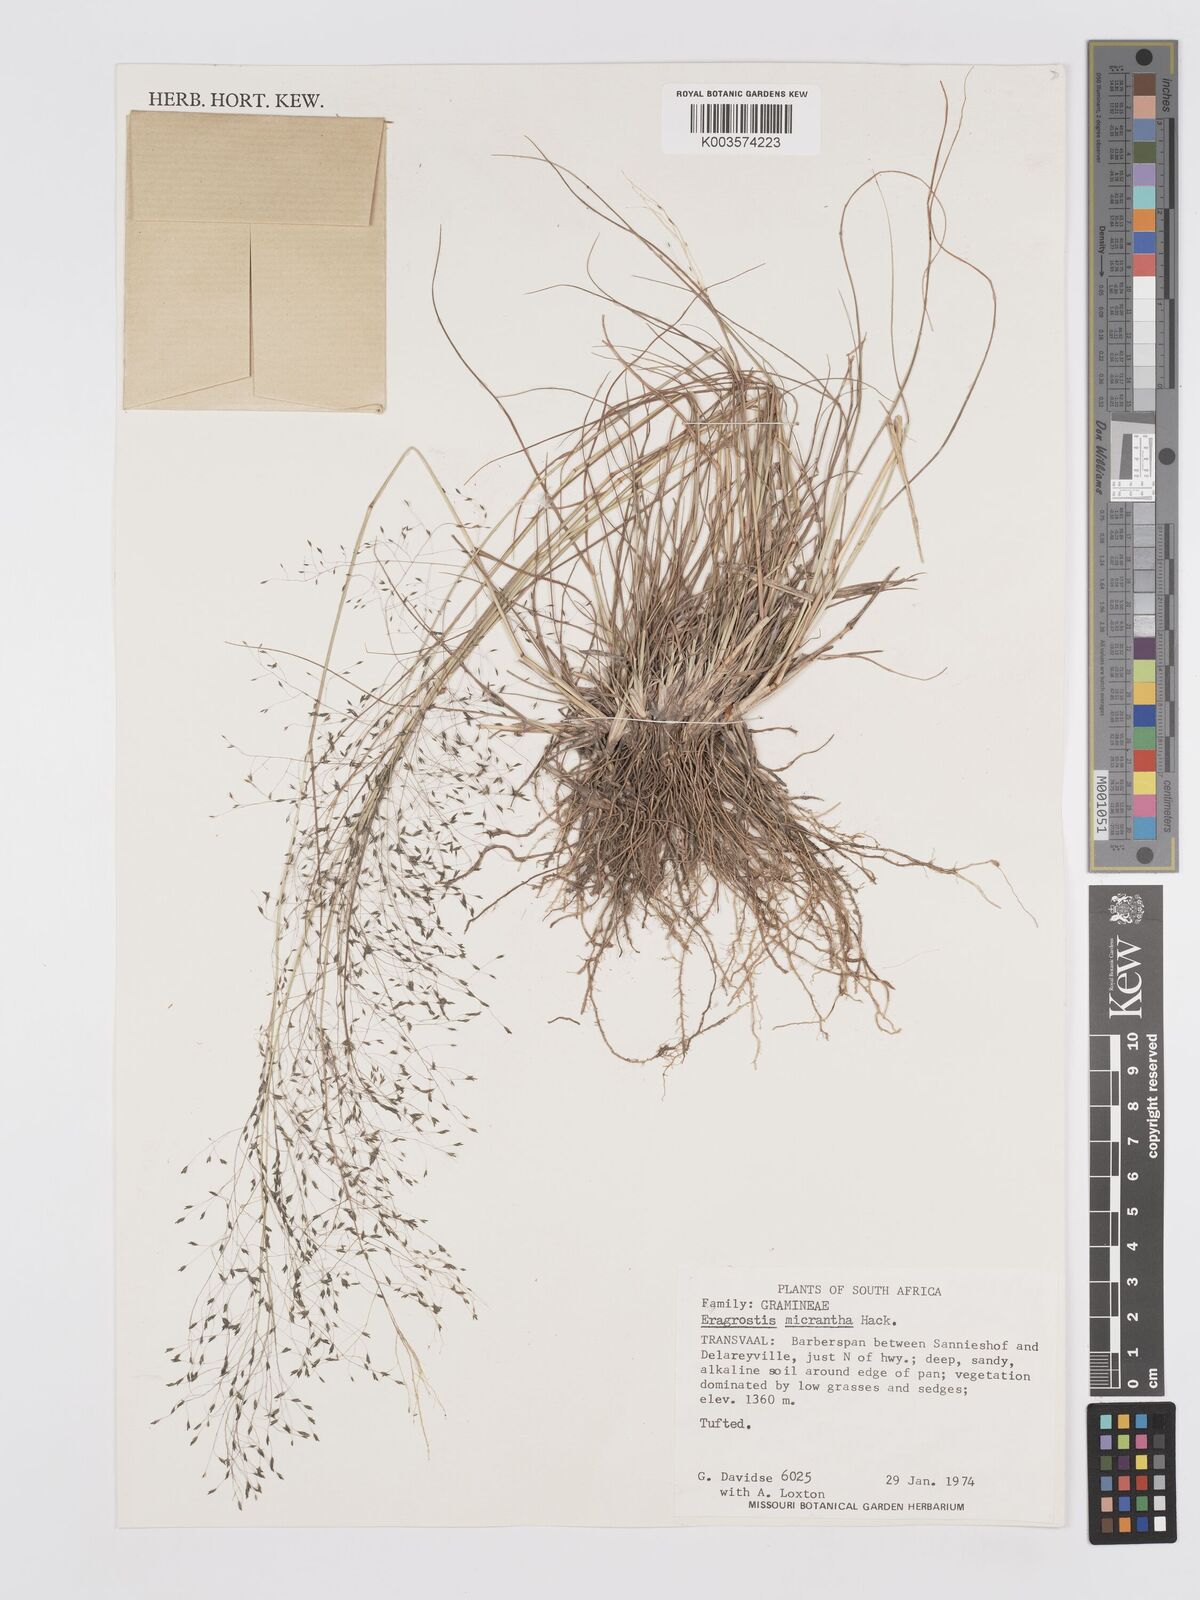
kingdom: Plantae
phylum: Tracheophyta
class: Liliopsida
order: Poales
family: Poaceae
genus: Eragrostis
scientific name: Eragrostis micrantha
